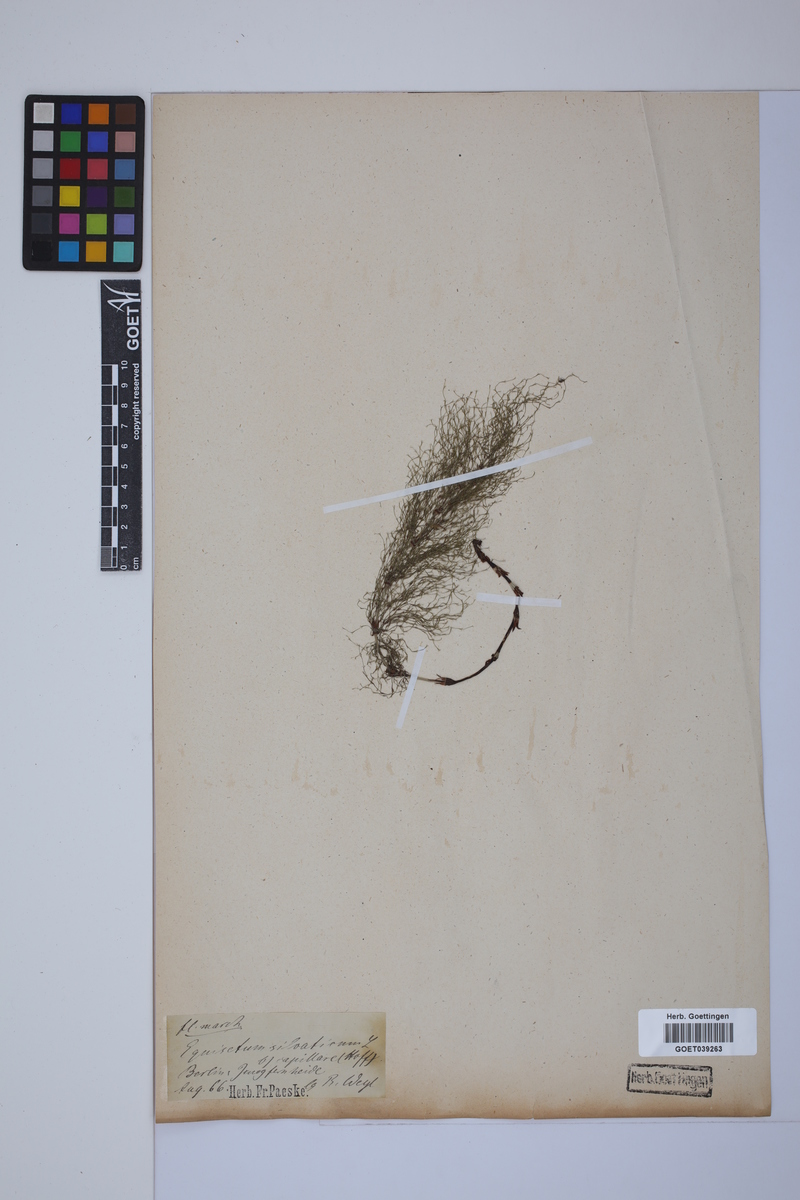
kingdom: Plantae
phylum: Tracheophyta
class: Polypodiopsida
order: Equisetales
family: Equisetaceae
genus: Equisetum
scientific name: Equisetum sylvaticum
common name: Wood horsetail
